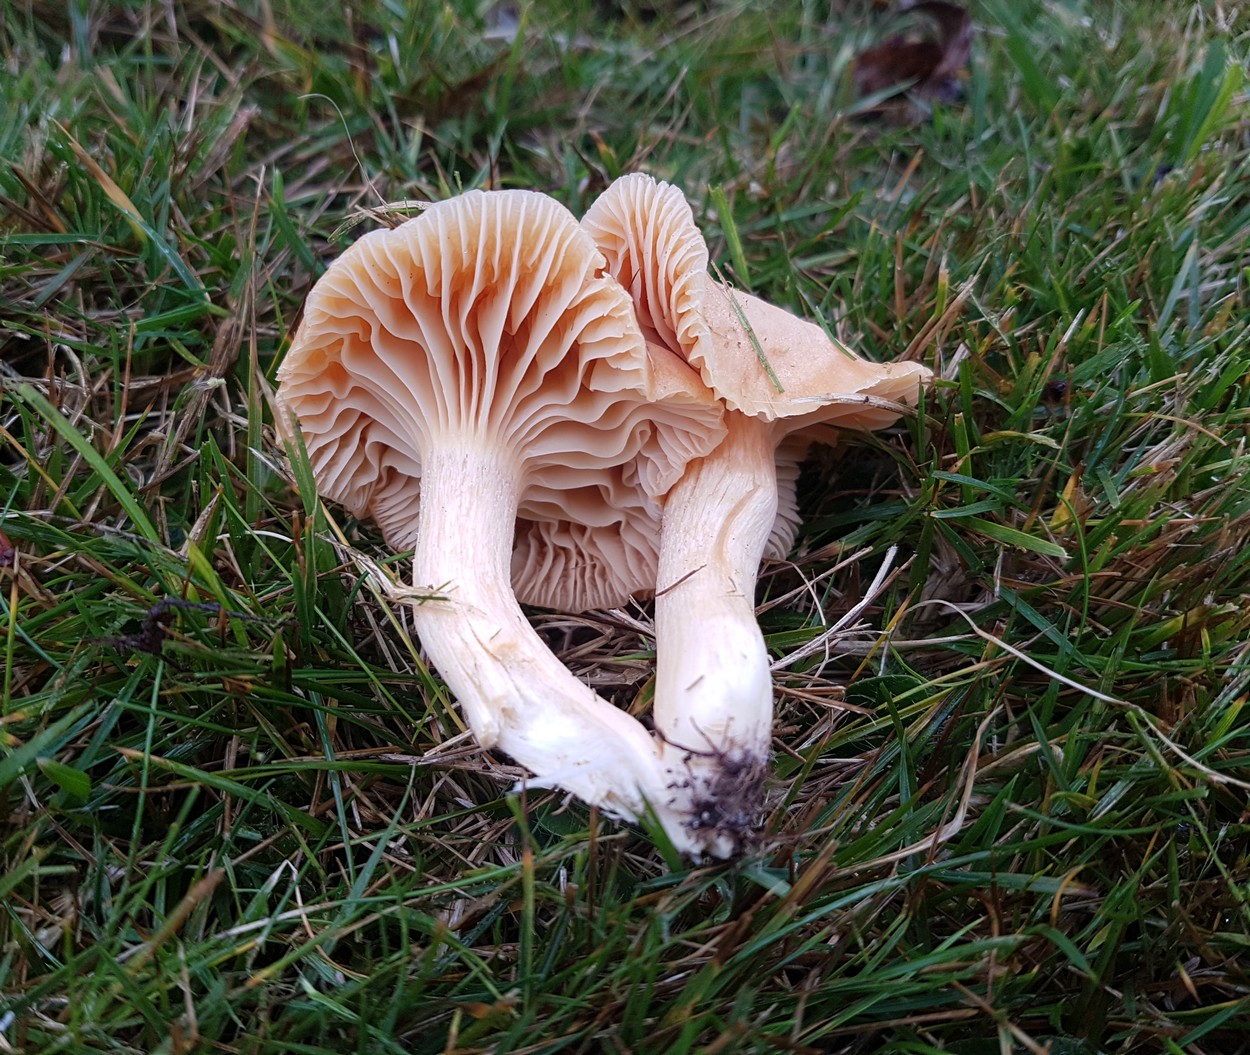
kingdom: Fungi
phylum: Basidiomycota
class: Agaricomycetes
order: Agaricales
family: Hygrophoraceae
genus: Cuphophyllus
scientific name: Cuphophyllus pratensis
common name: eng-vokshat
